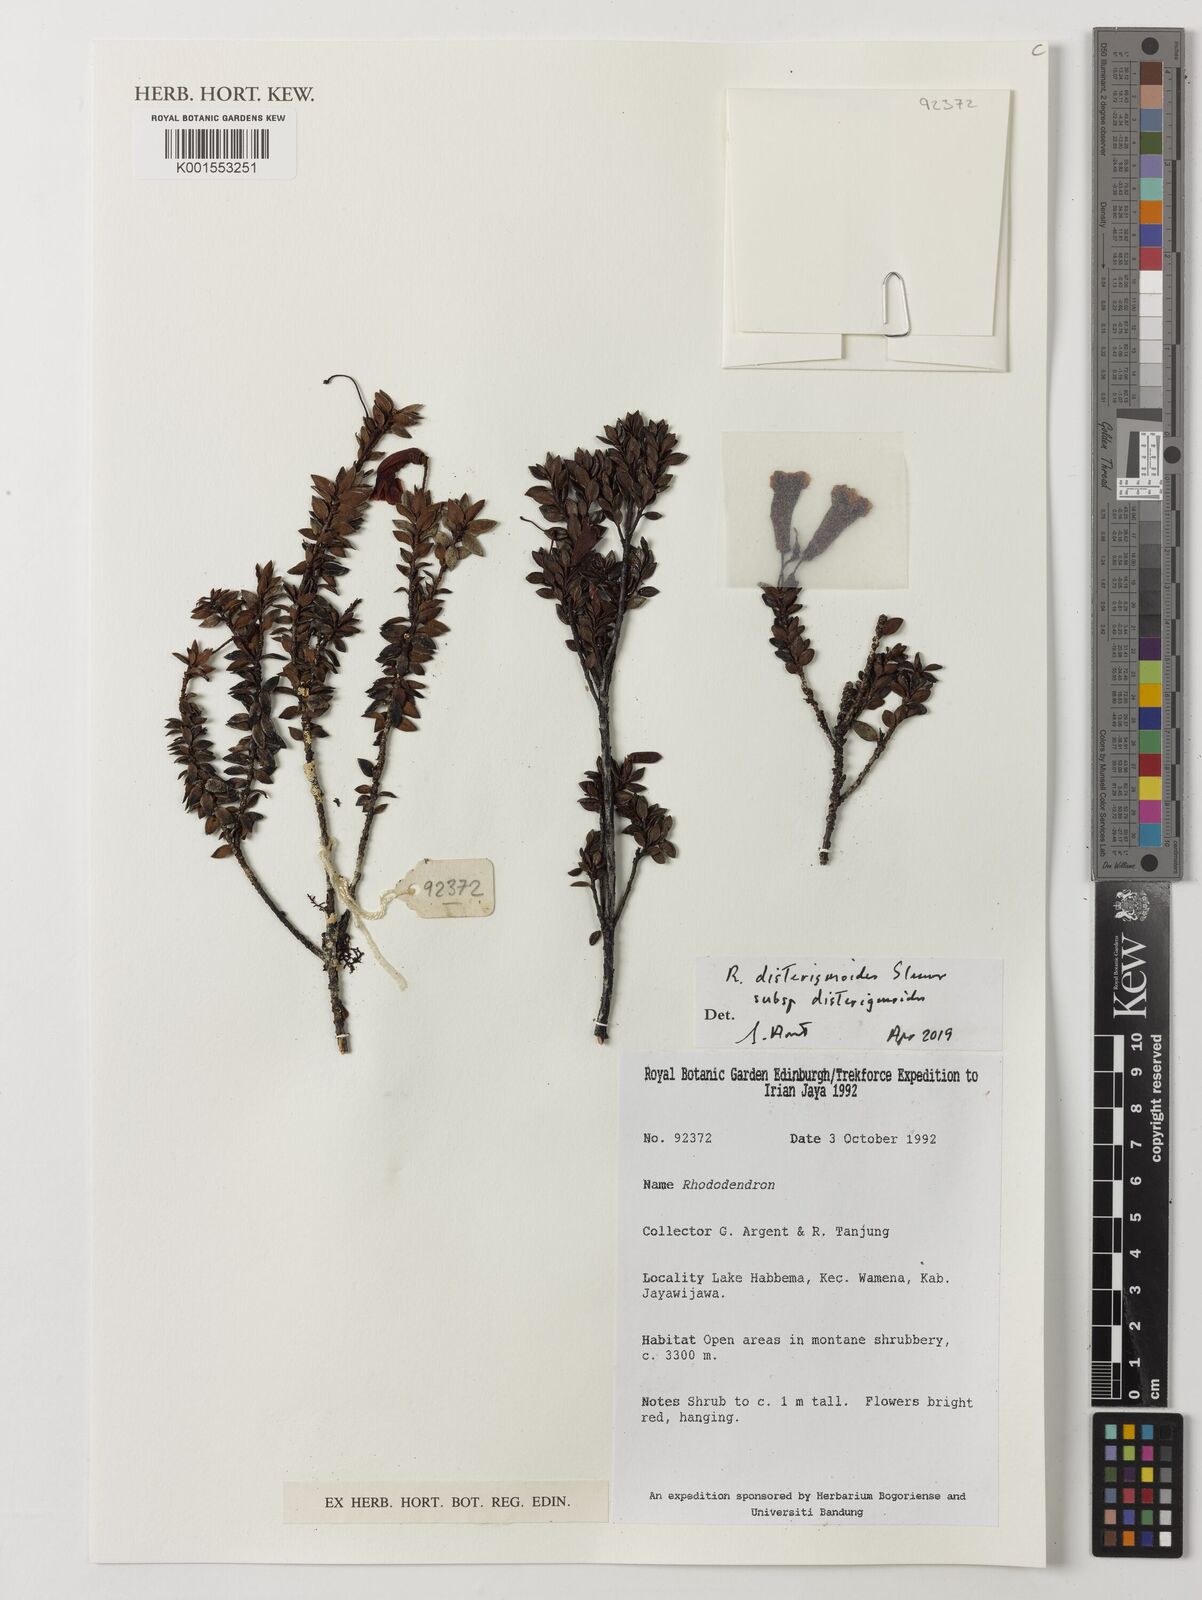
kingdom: Plantae
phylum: Tracheophyta
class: Magnoliopsida
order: Ericales
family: Ericaceae
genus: Rhododendron
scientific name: Rhododendron disterigmoides
